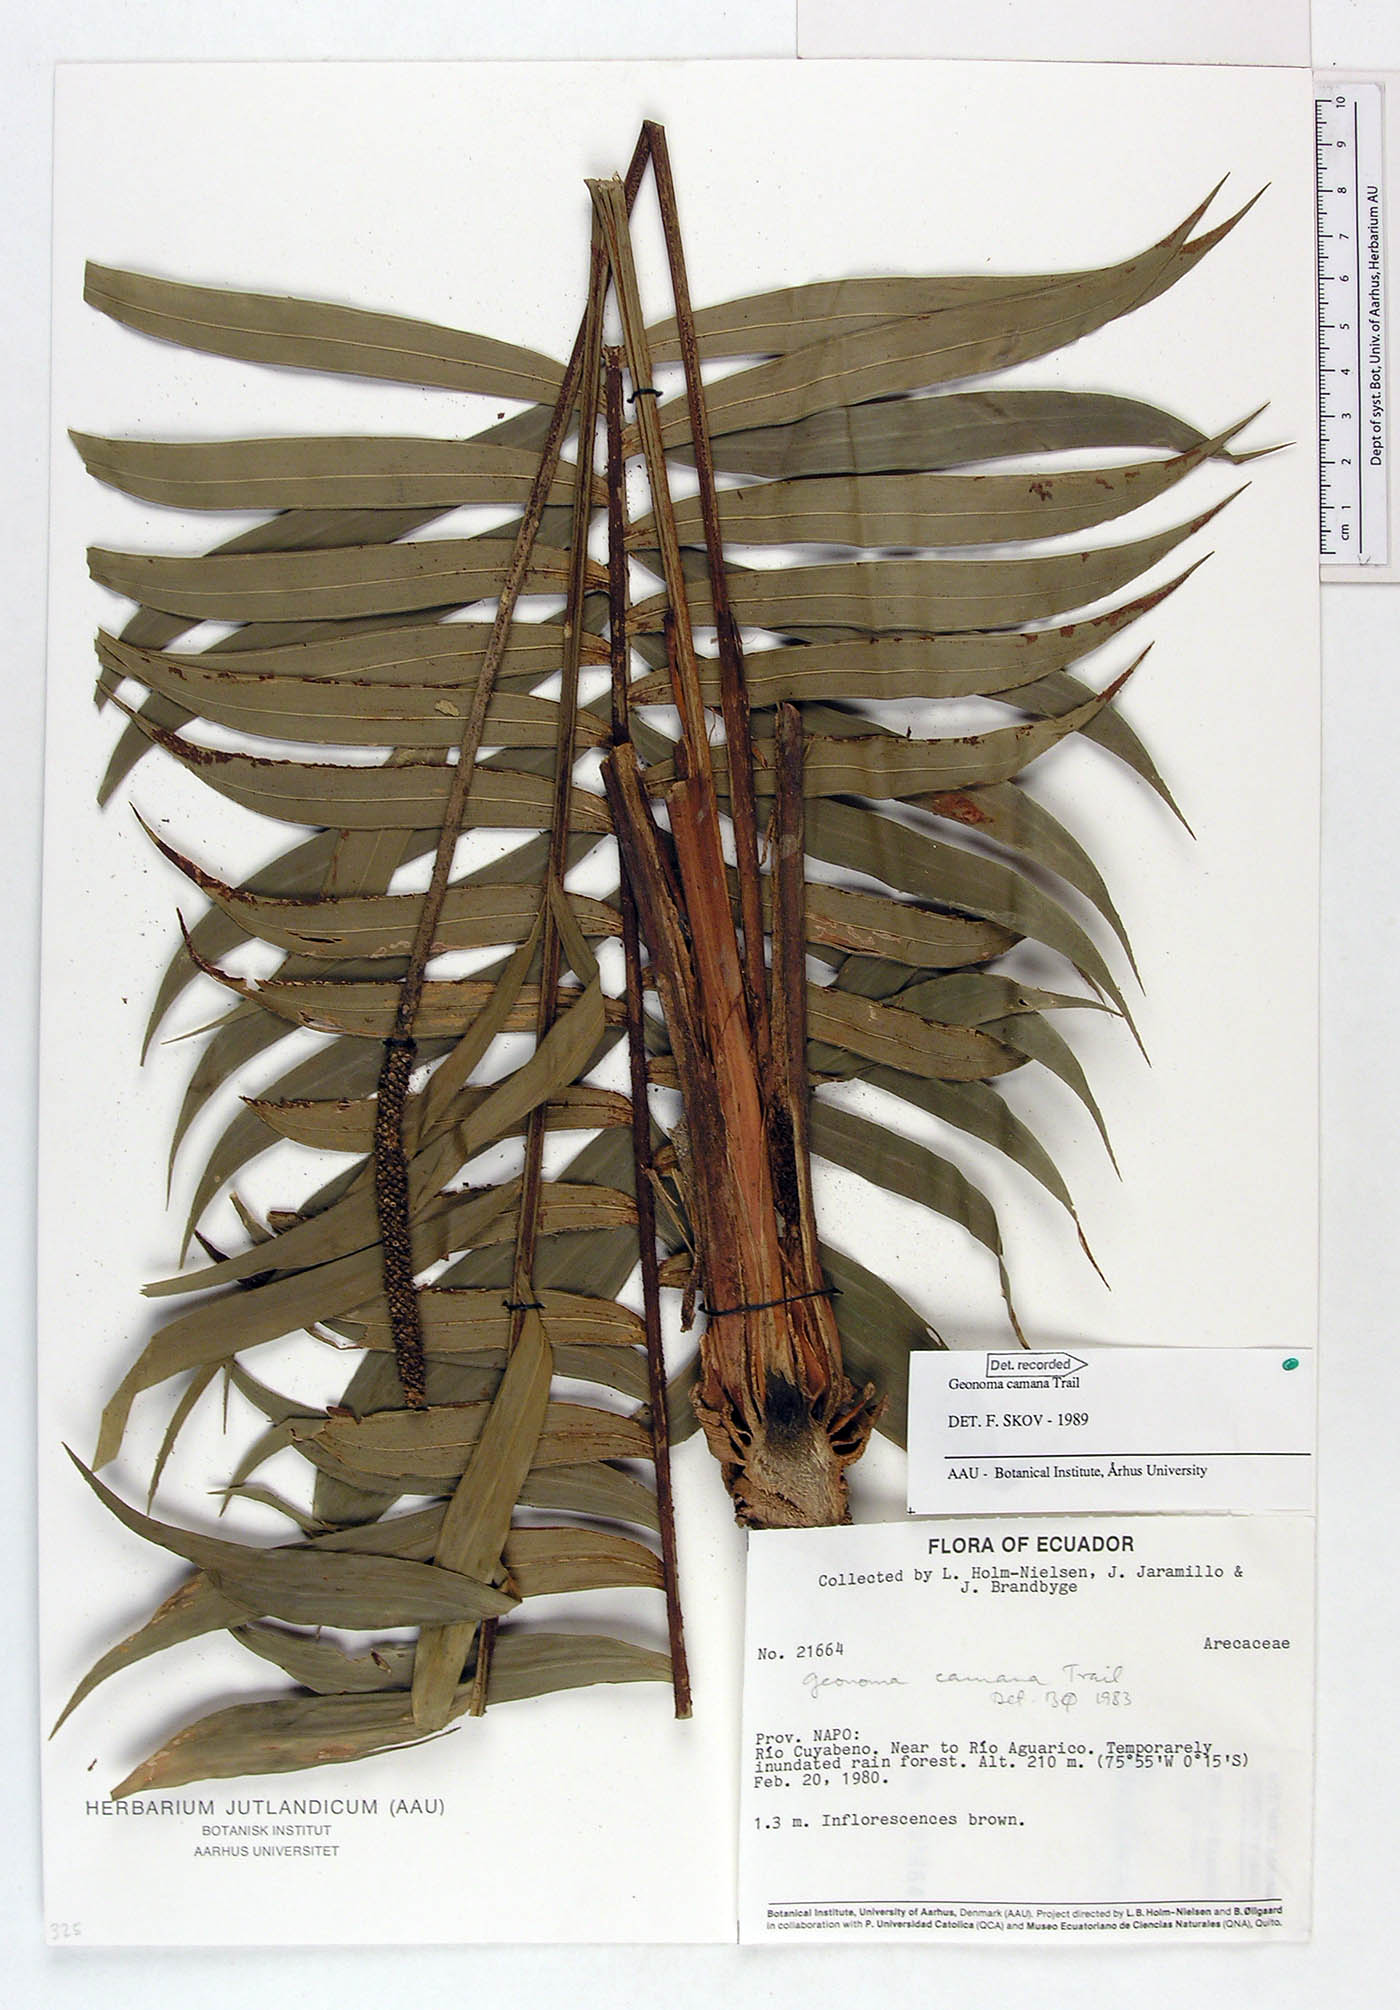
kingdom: Plantae
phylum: Tracheophyta
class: Liliopsida
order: Arecales
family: Arecaceae
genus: Geonoma
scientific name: Geonoma camana
